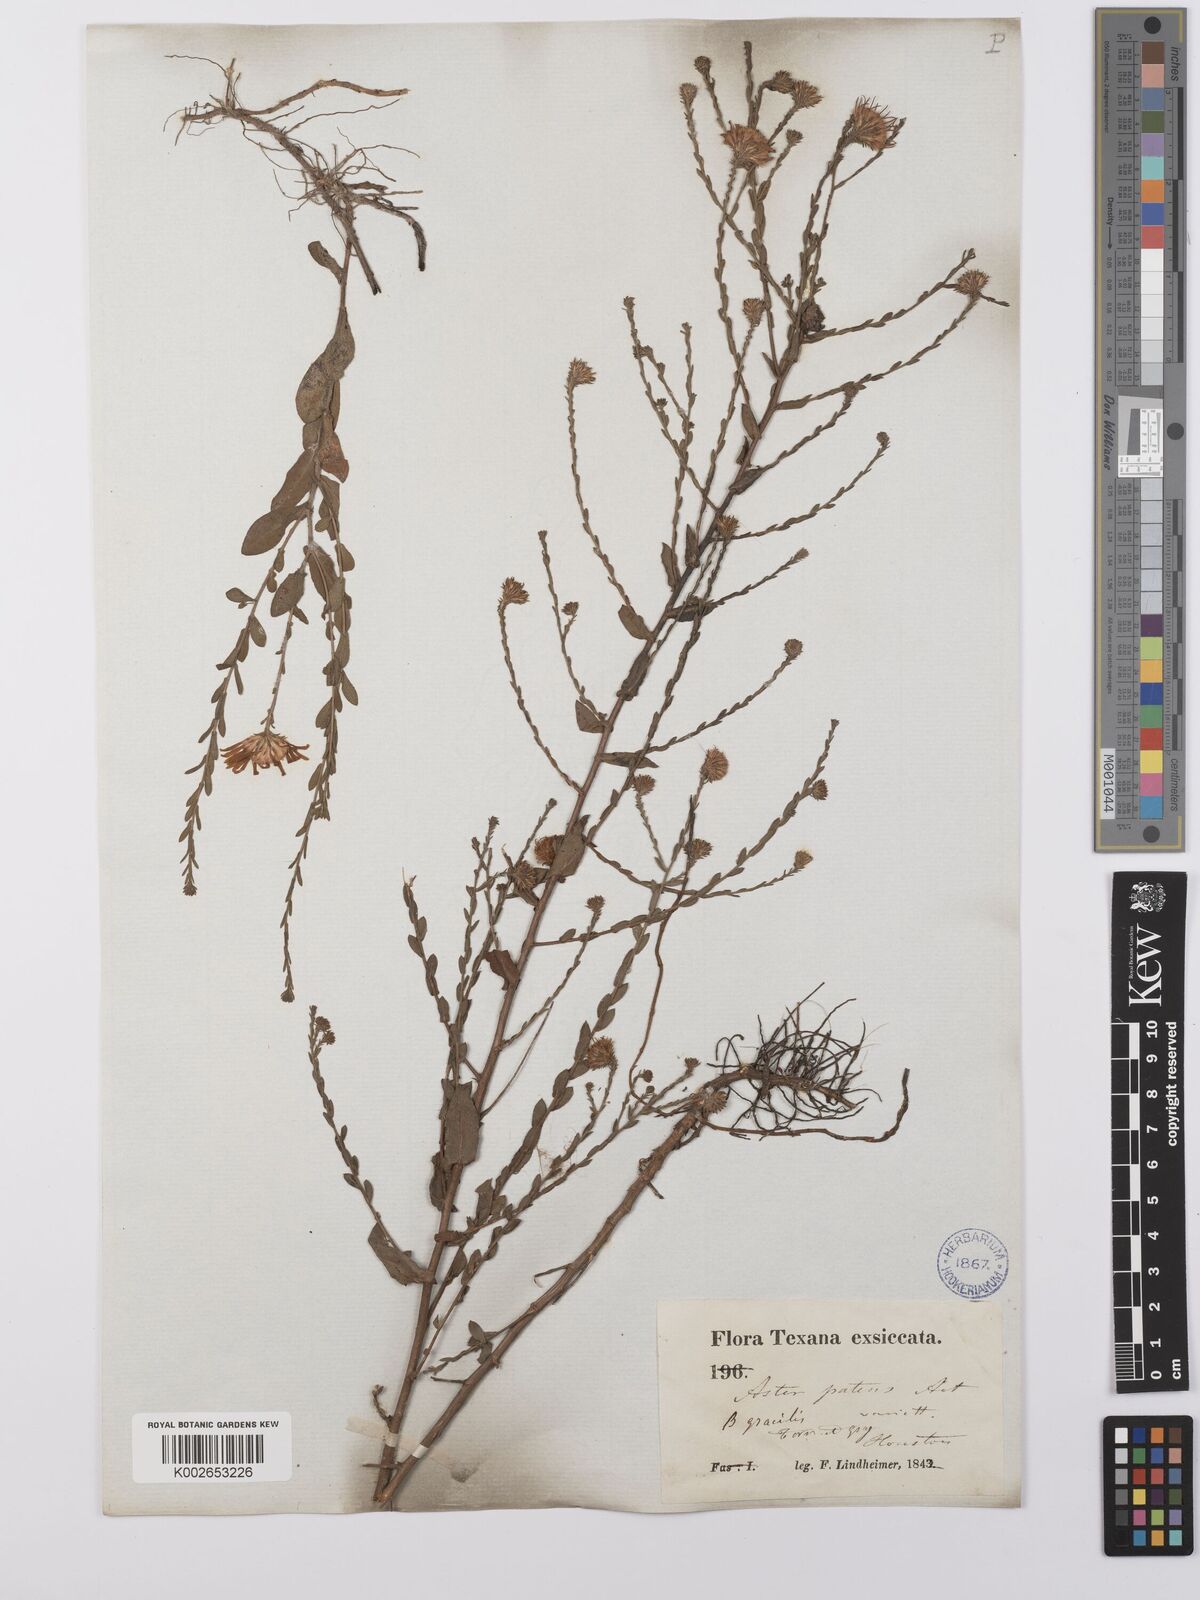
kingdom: Plantae
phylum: Tracheophyta
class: Magnoliopsida
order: Asterales
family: Asteraceae
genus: Symphyotrichum
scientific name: Symphyotrichum patens
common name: Late purple aster
